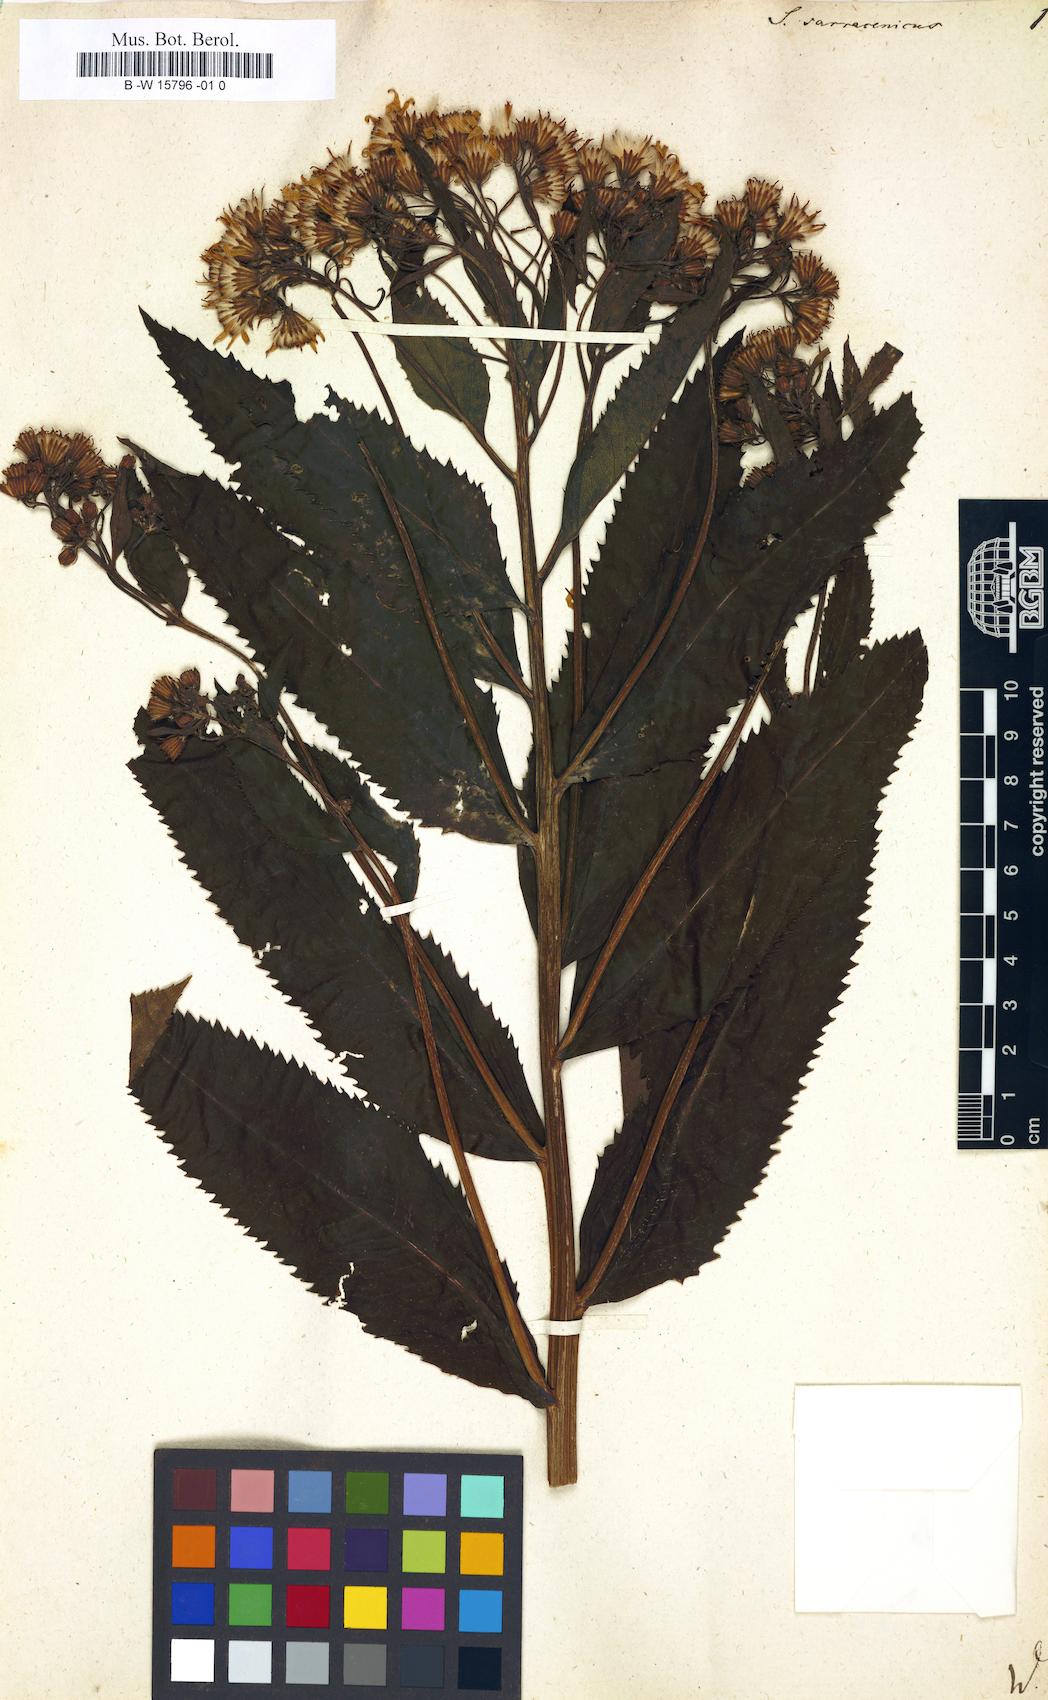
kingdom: Plantae
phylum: Tracheophyta
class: Magnoliopsida
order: Asterales
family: Asteraceae
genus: Senecio
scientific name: Senecio sarracenicus
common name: Broad-leaved ragwort
